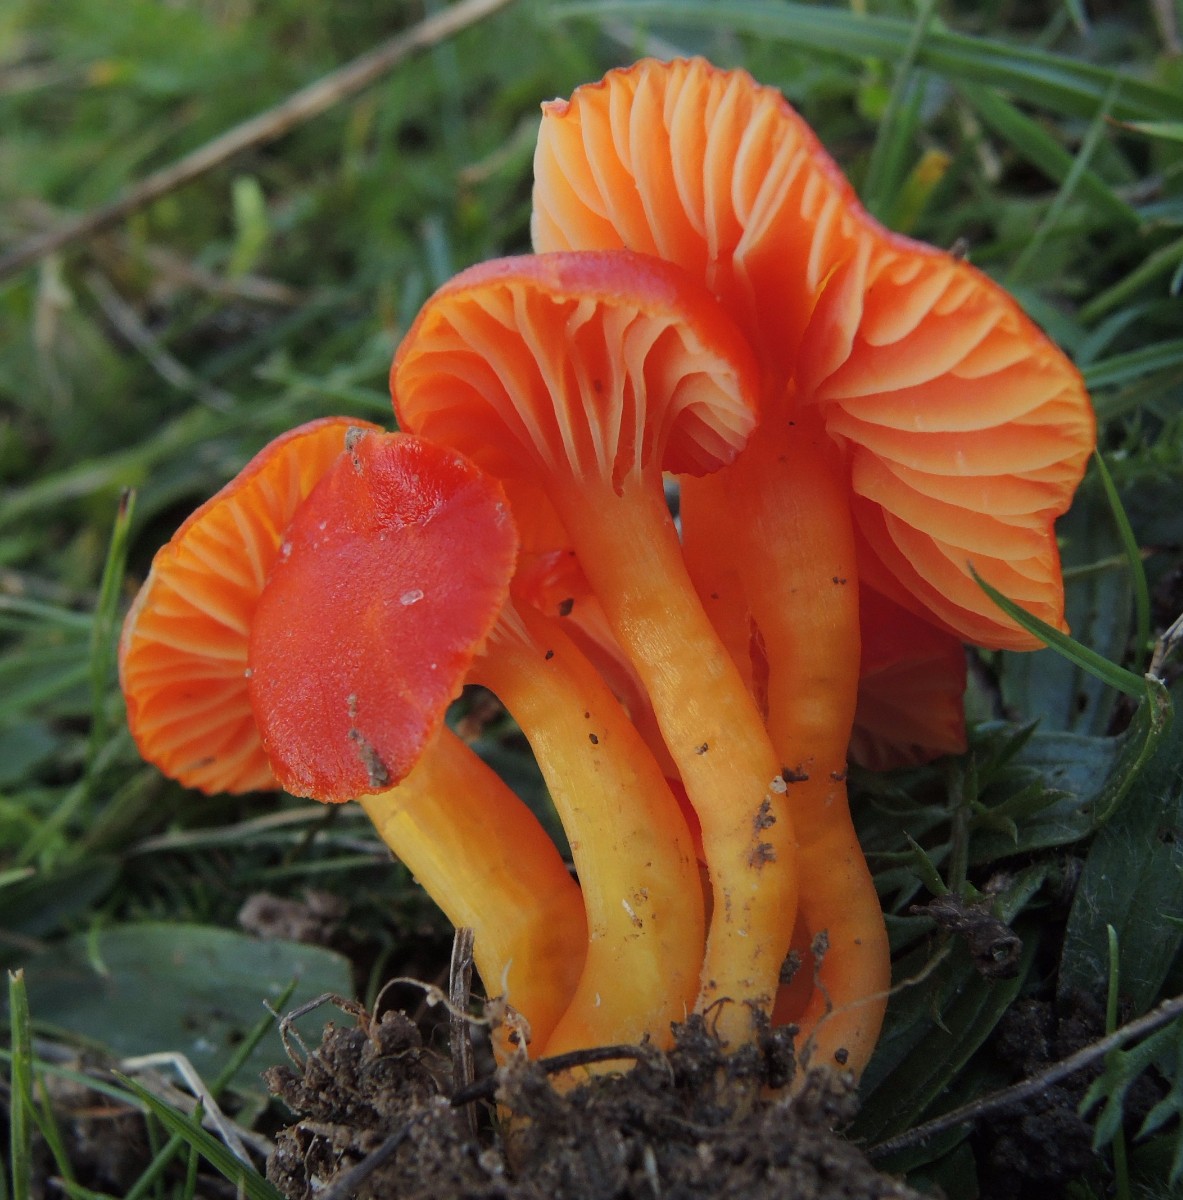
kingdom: Fungi
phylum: Basidiomycota
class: Agaricomycetes
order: Agaricales
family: Hygrophoraceae
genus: Hygrocybe
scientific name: Hygrocybe insipida
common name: liden vokshat
